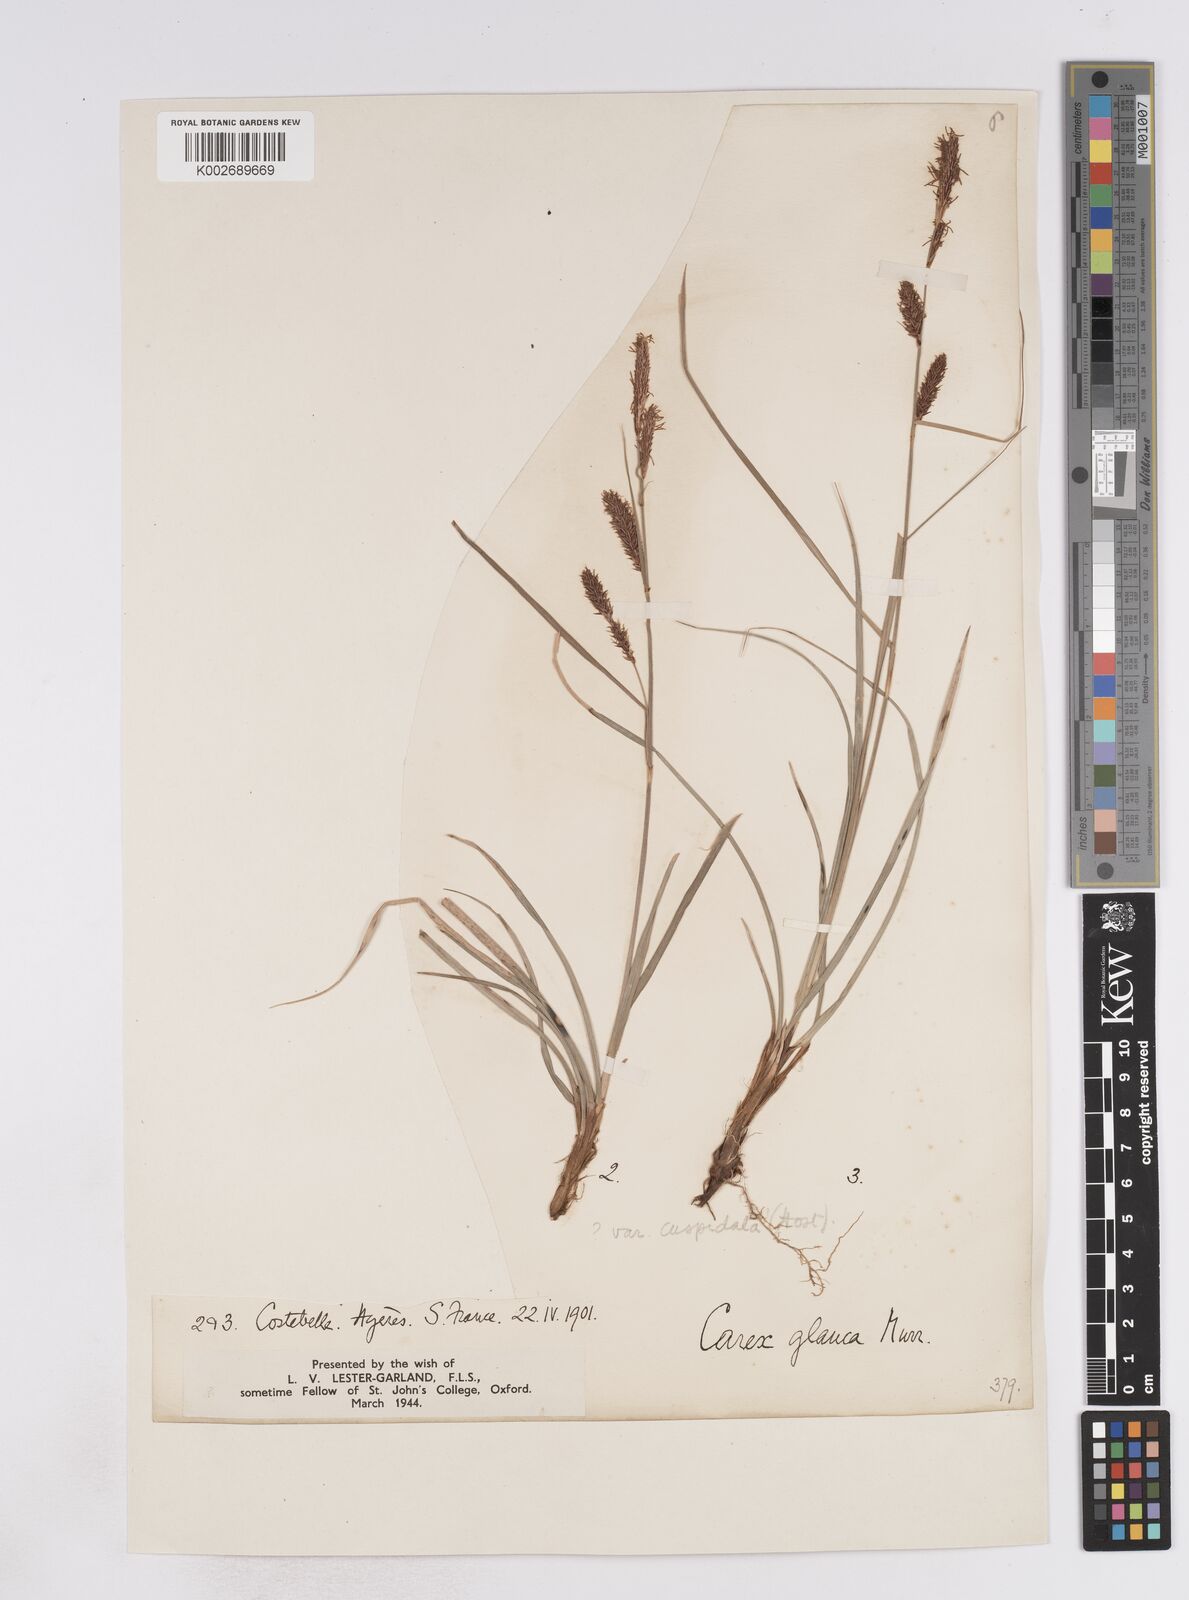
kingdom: Plantae
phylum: Tracheophyta
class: Liliopsida
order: Poales
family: Cyperaceae
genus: Carex
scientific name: Carex flacca
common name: Glaucous sedge
